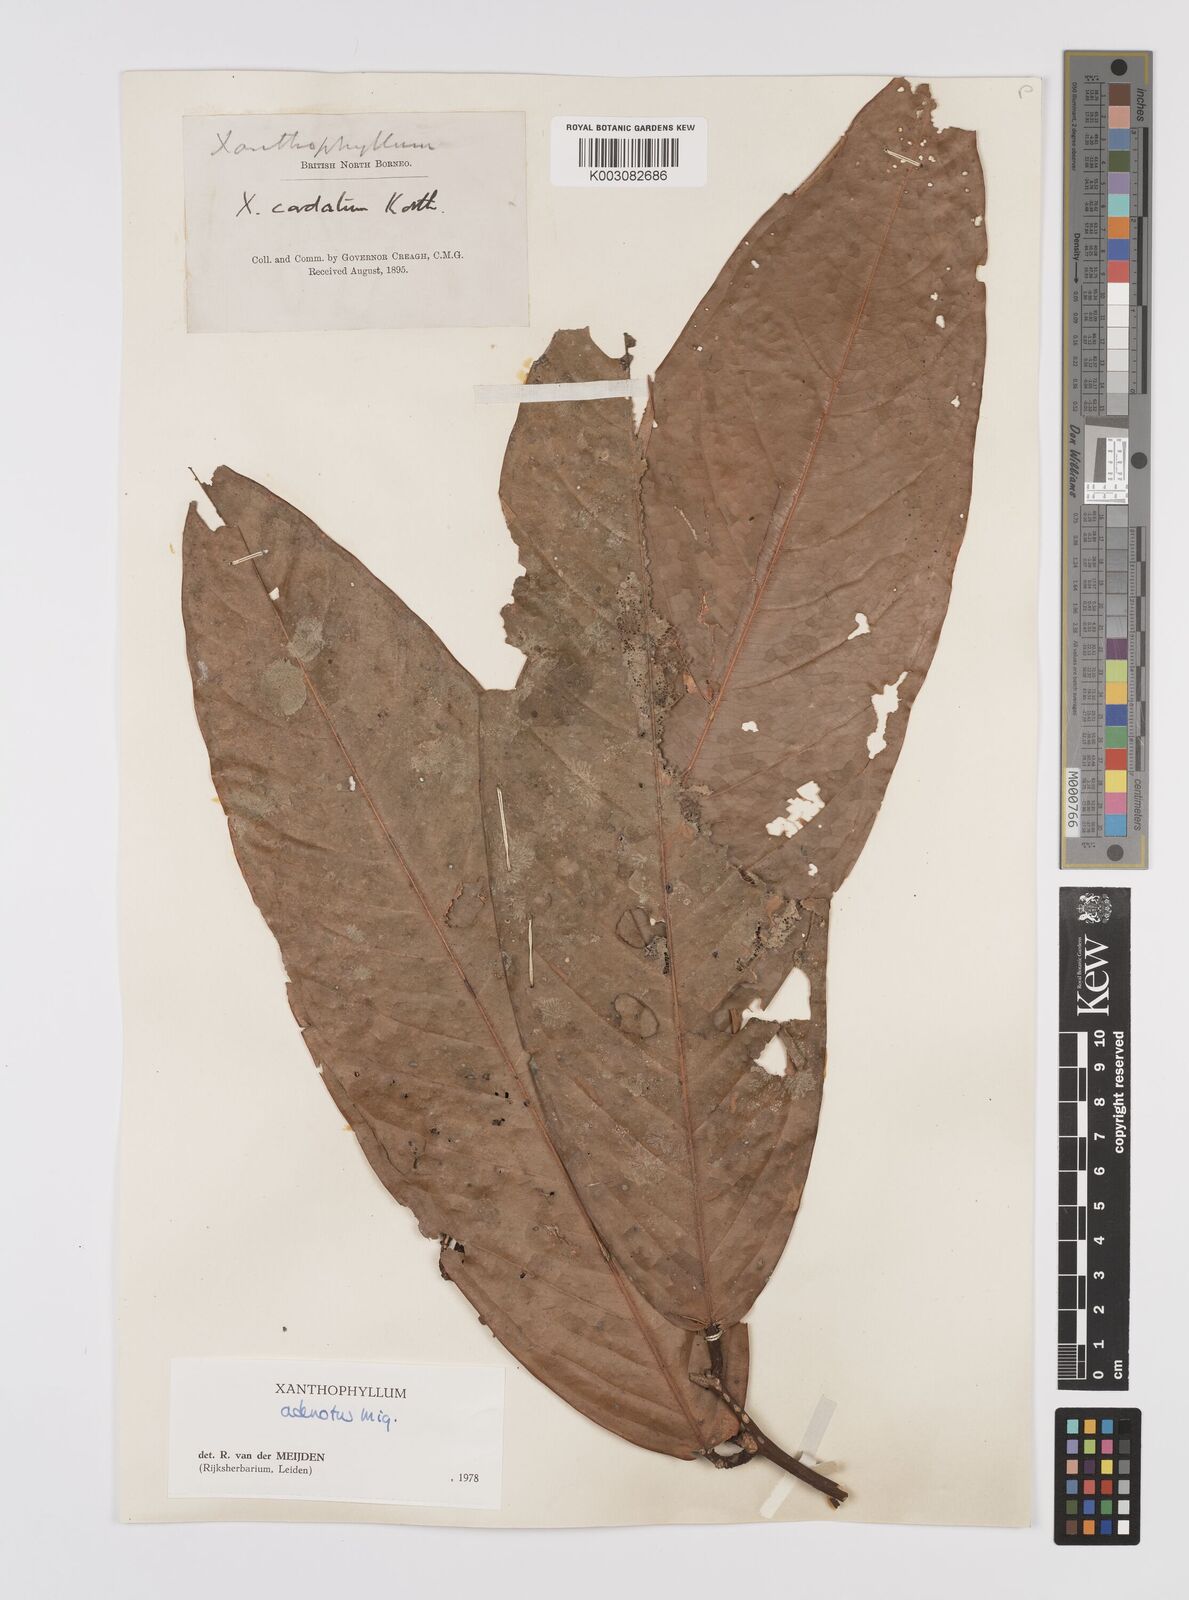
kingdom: Plantae
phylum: Tracheophyta
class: Magnoliopsida
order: Fabales
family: Polygalaceae
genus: Xanthophyllum
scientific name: Xanthophyllum adenotus
